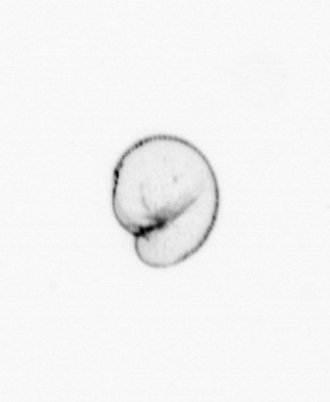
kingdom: Chromista
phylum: Myzozoa
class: Dinophyceae
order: Noctilucales
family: Noctilucaceae
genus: Noctiluca
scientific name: Noctiluca scintillans
